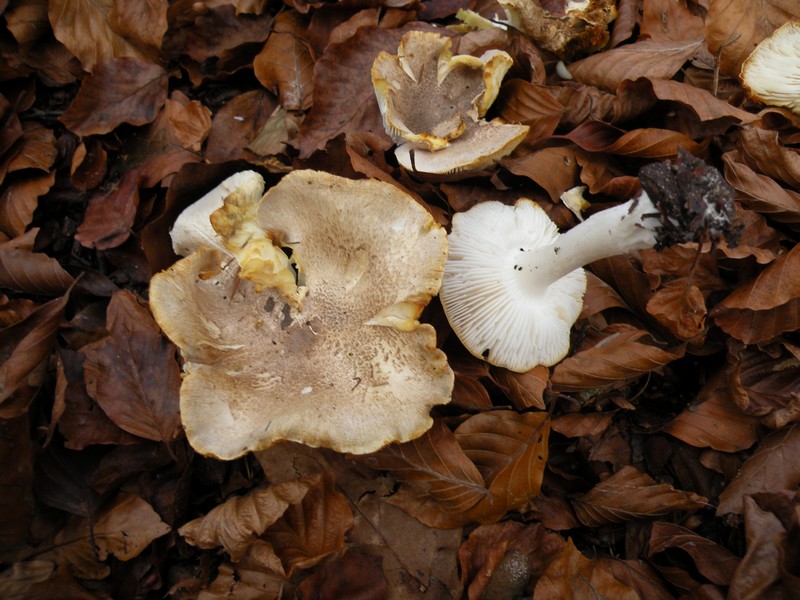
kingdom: Fungi
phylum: Basidiomycota
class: Agaricomycetes
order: Agaricales
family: Tricholomataceae
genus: Tricholoma
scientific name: Tricholoma scalpturatum
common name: gulplettet ridderhat
